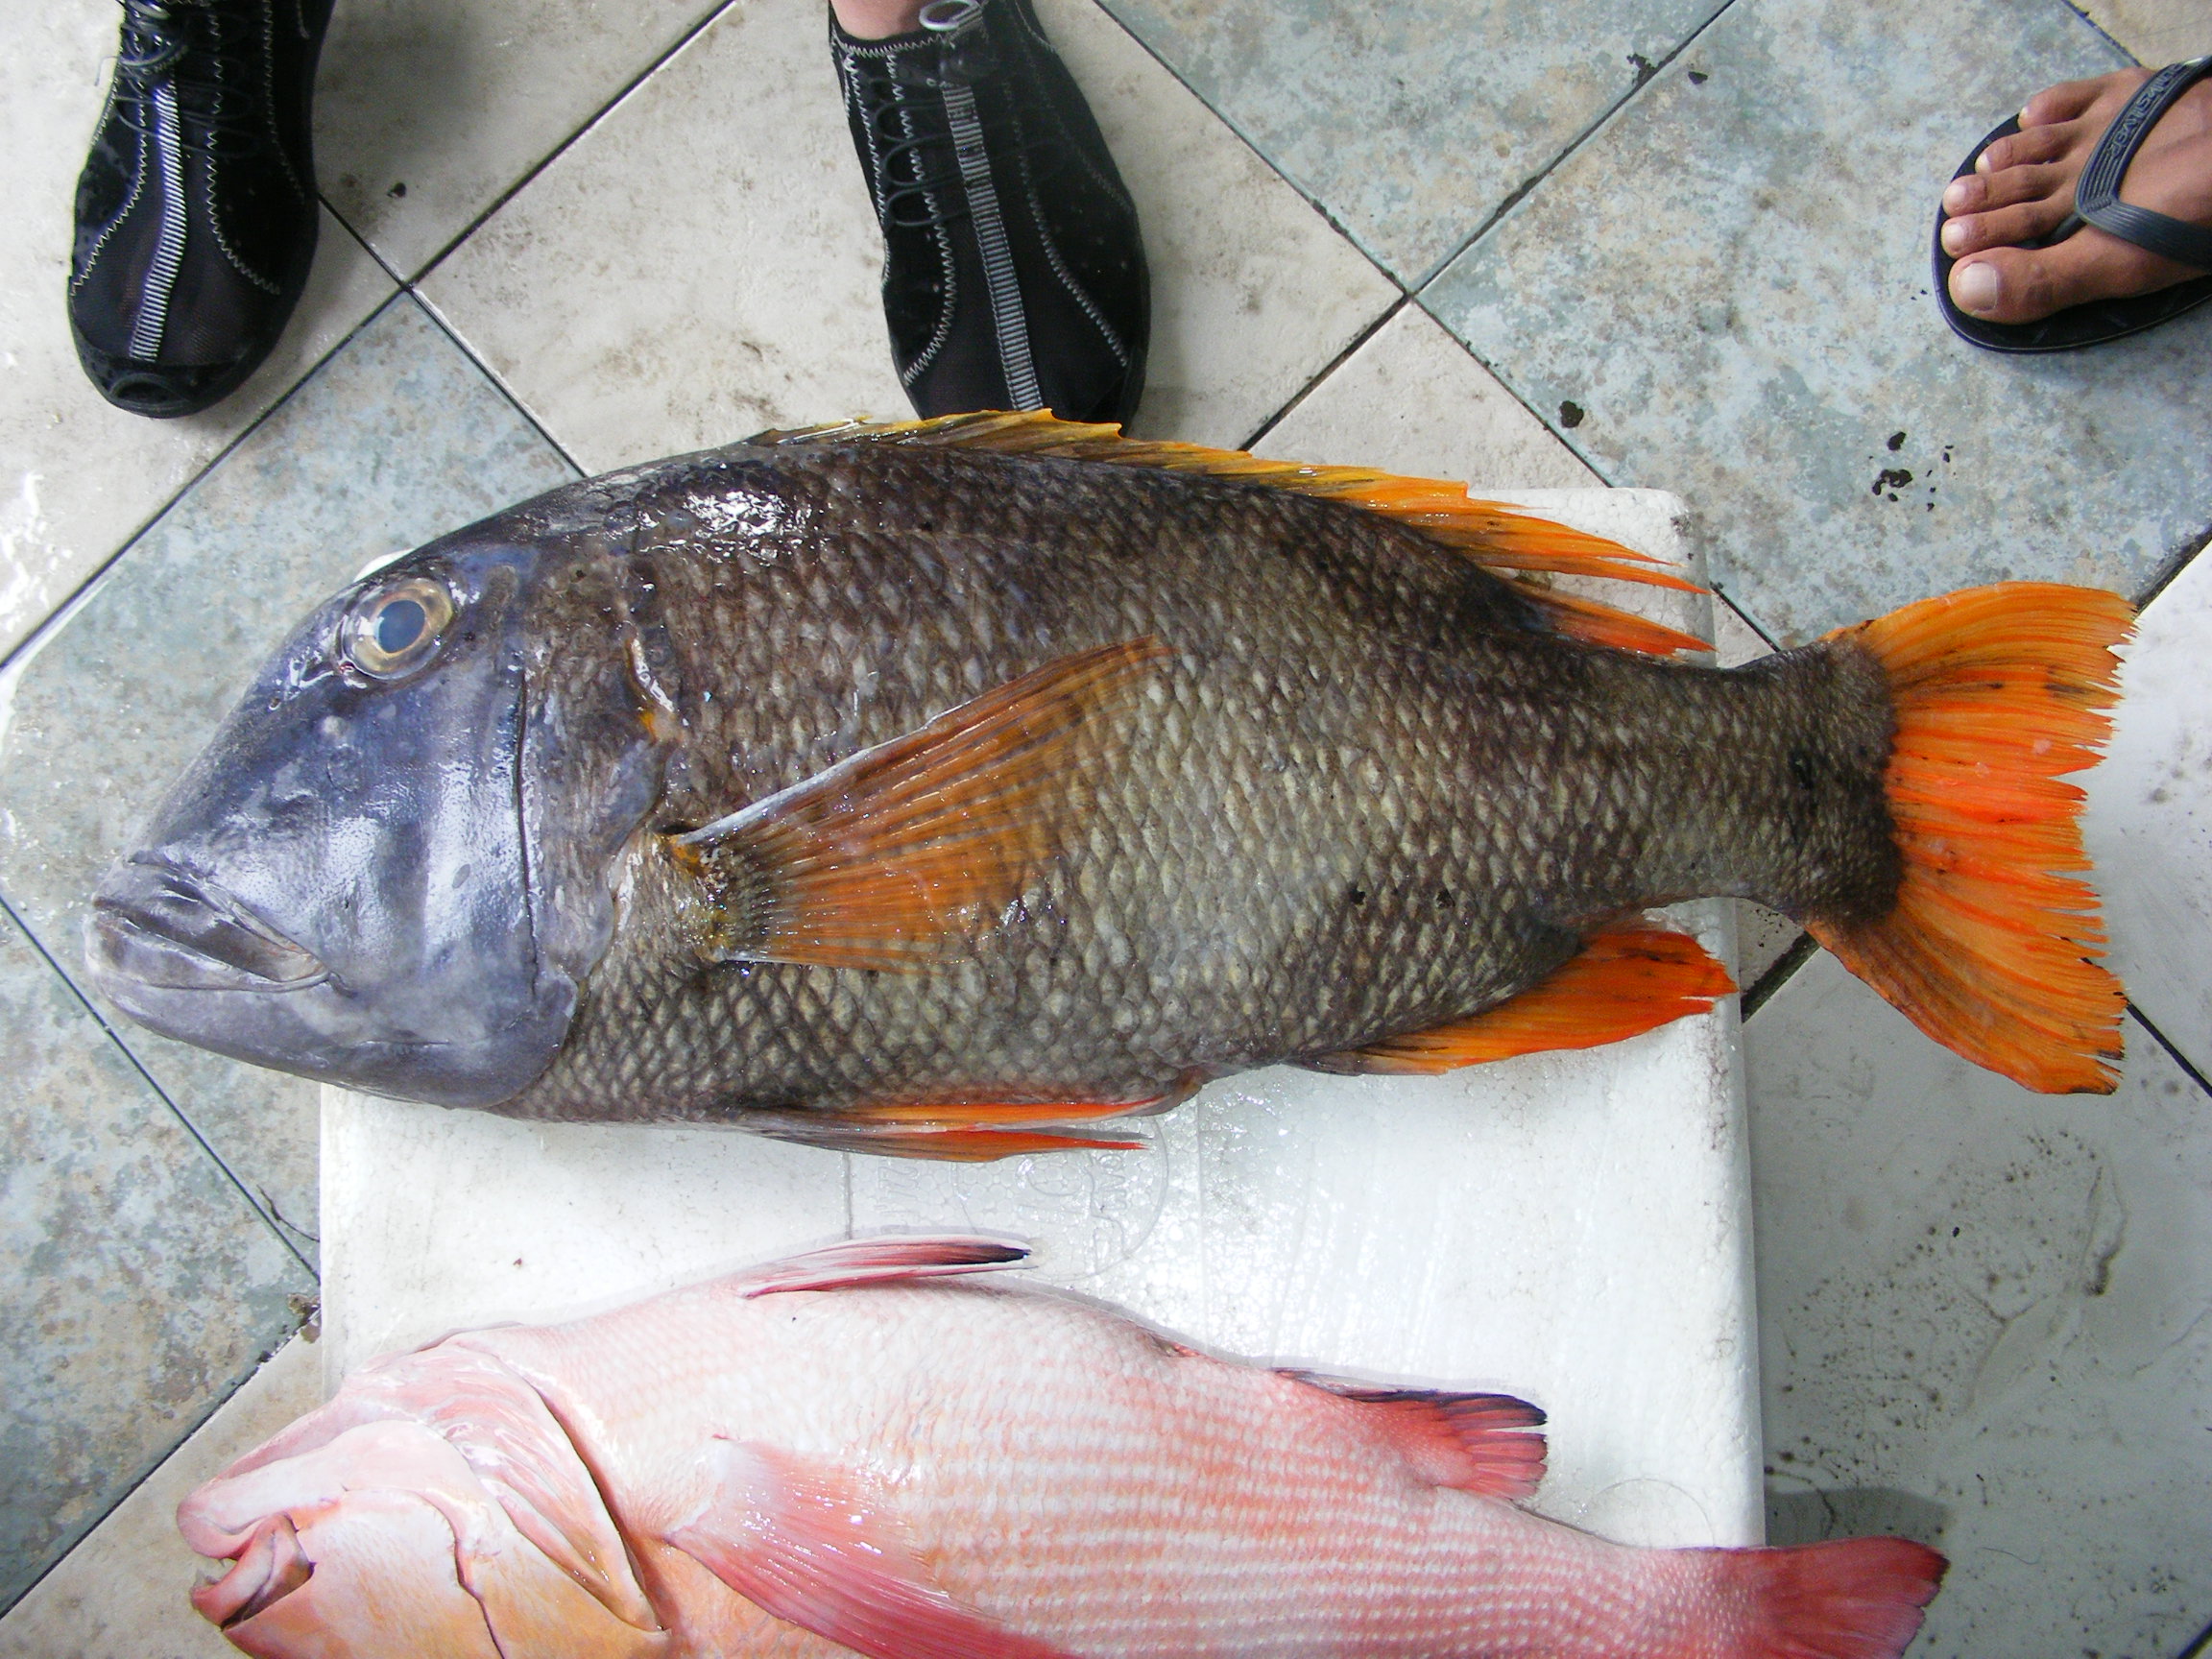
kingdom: Animalia
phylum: Chordata
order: Perciformes
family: Lethrinidae
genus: Lethrinus
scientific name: Lethrinus erythropterus
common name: Longfin emperor
